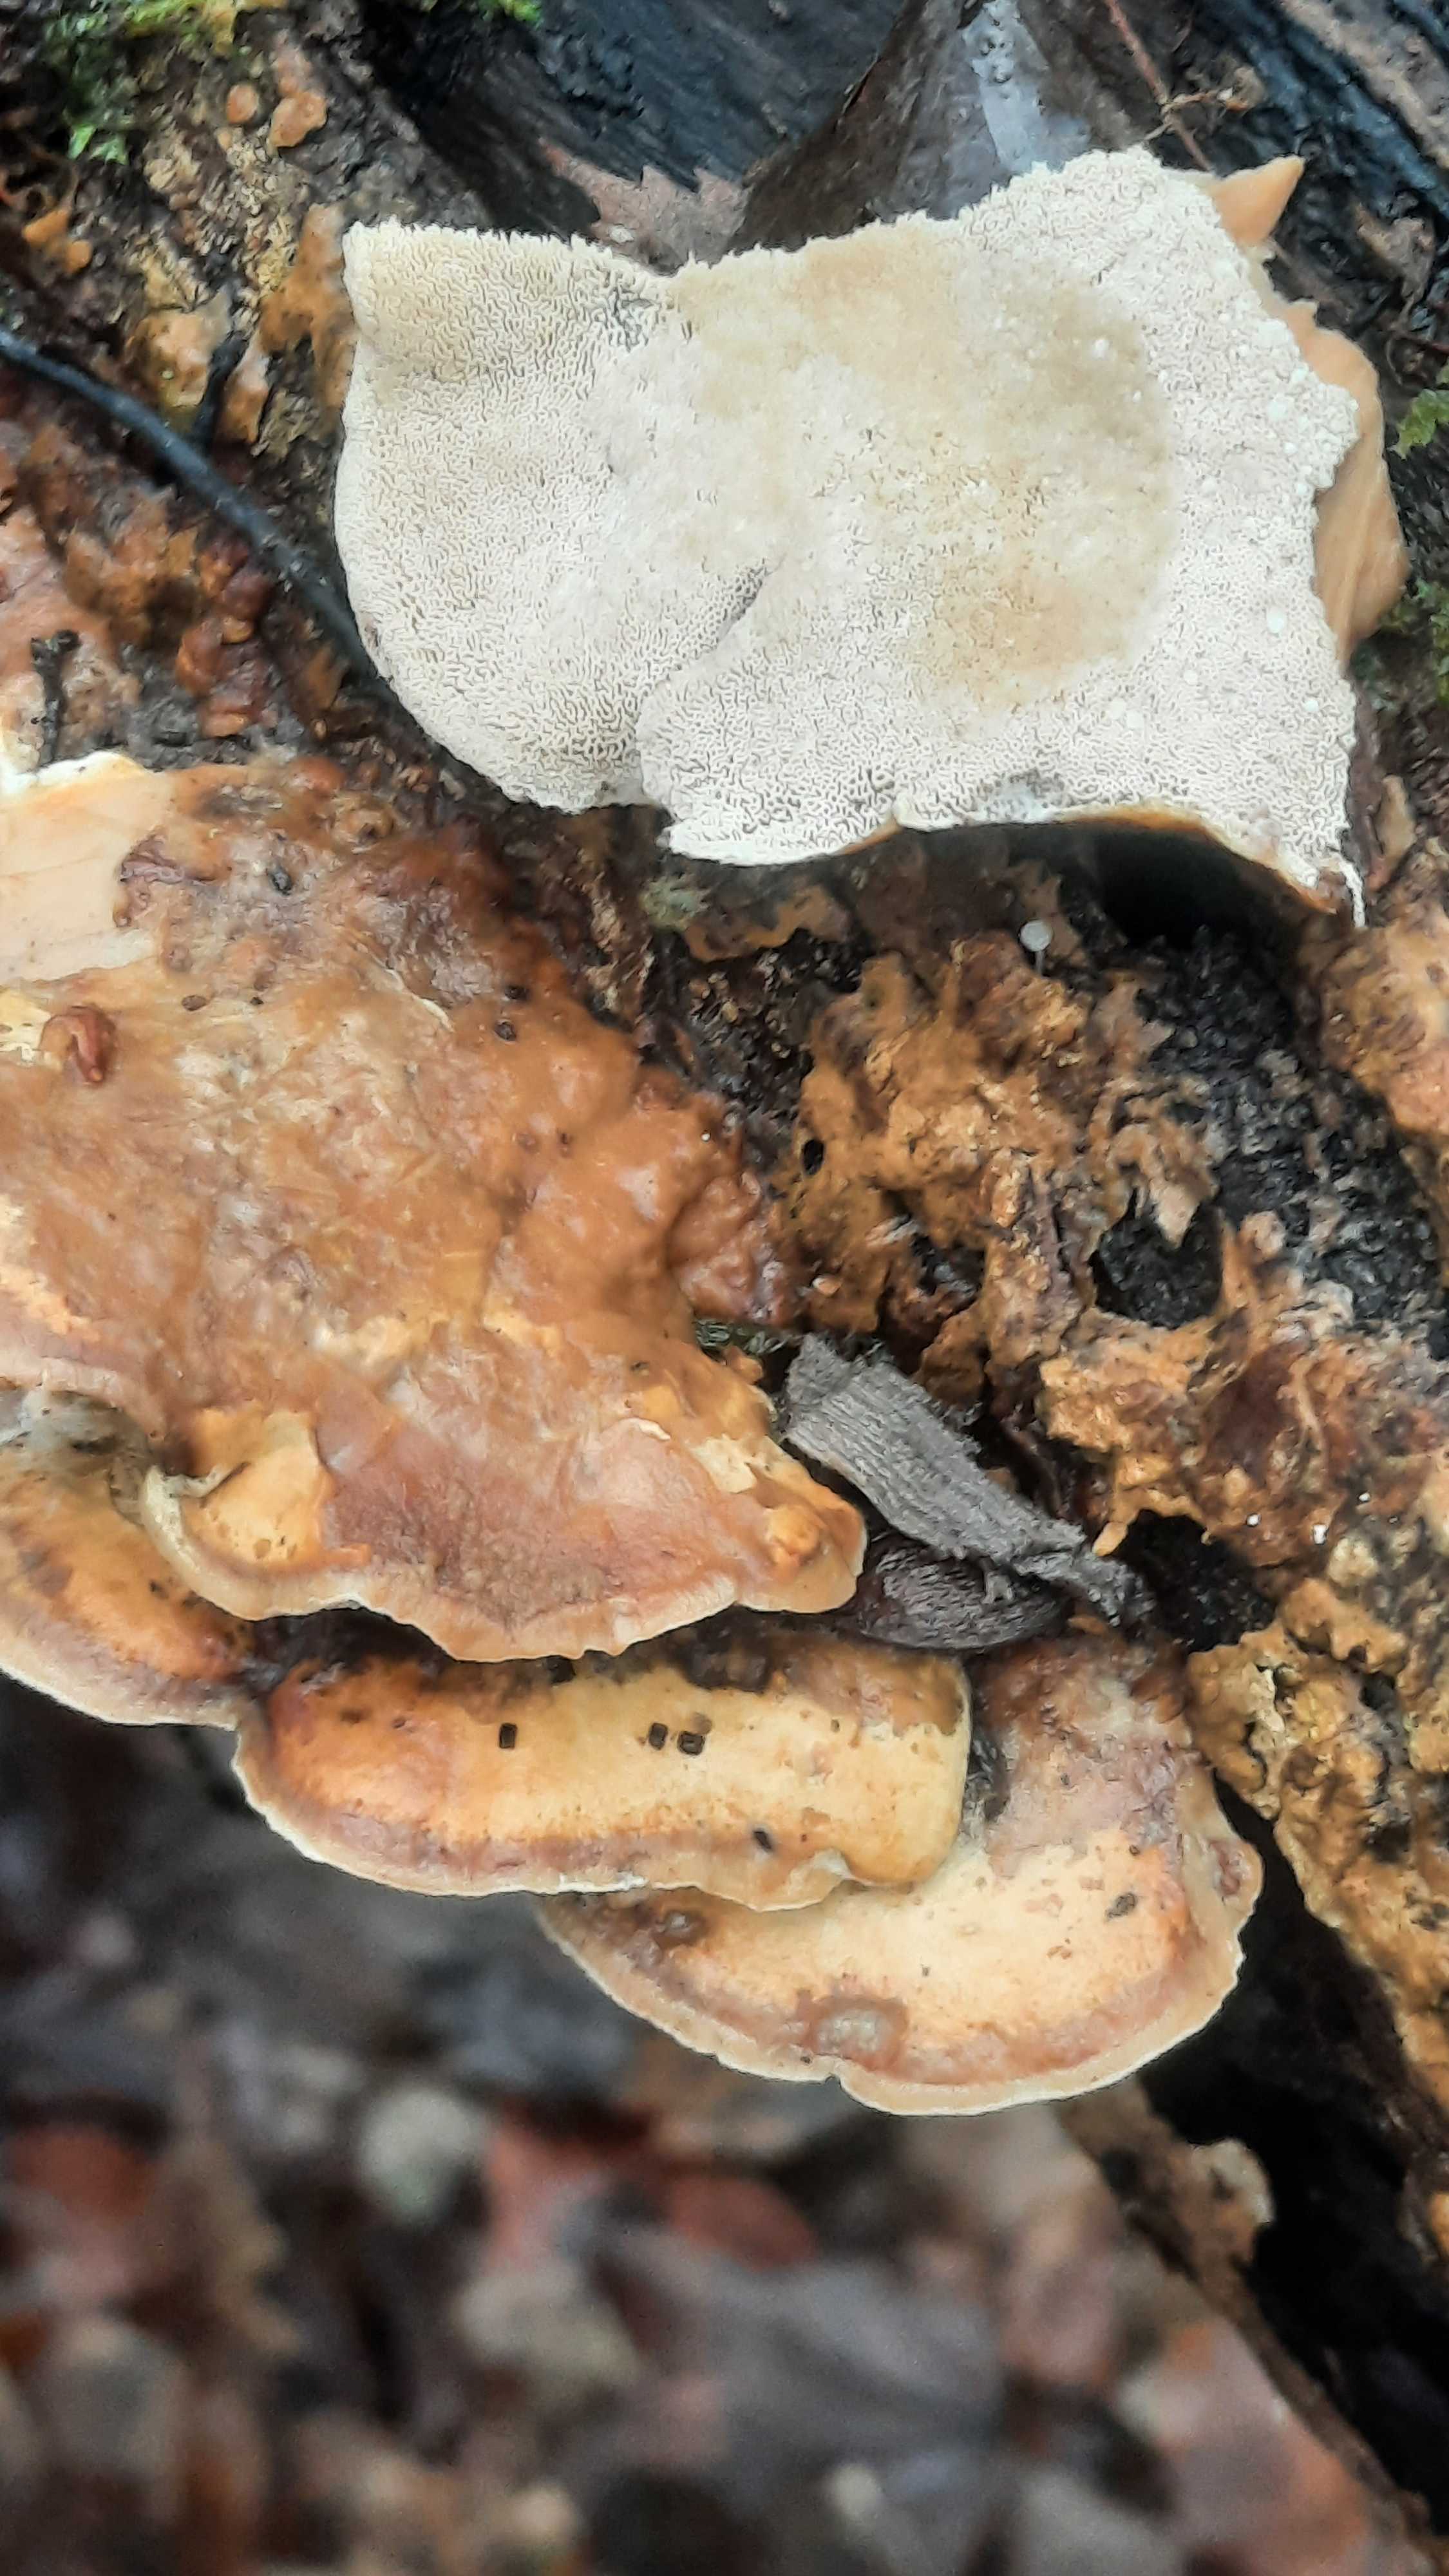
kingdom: Fungi
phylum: Basidiomycota
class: Agaricomycetes
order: Polyporales
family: Phanerochaetaceae
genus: Bjerkandera
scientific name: Bjerkandera fumosa
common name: grågul sodporesvamp
